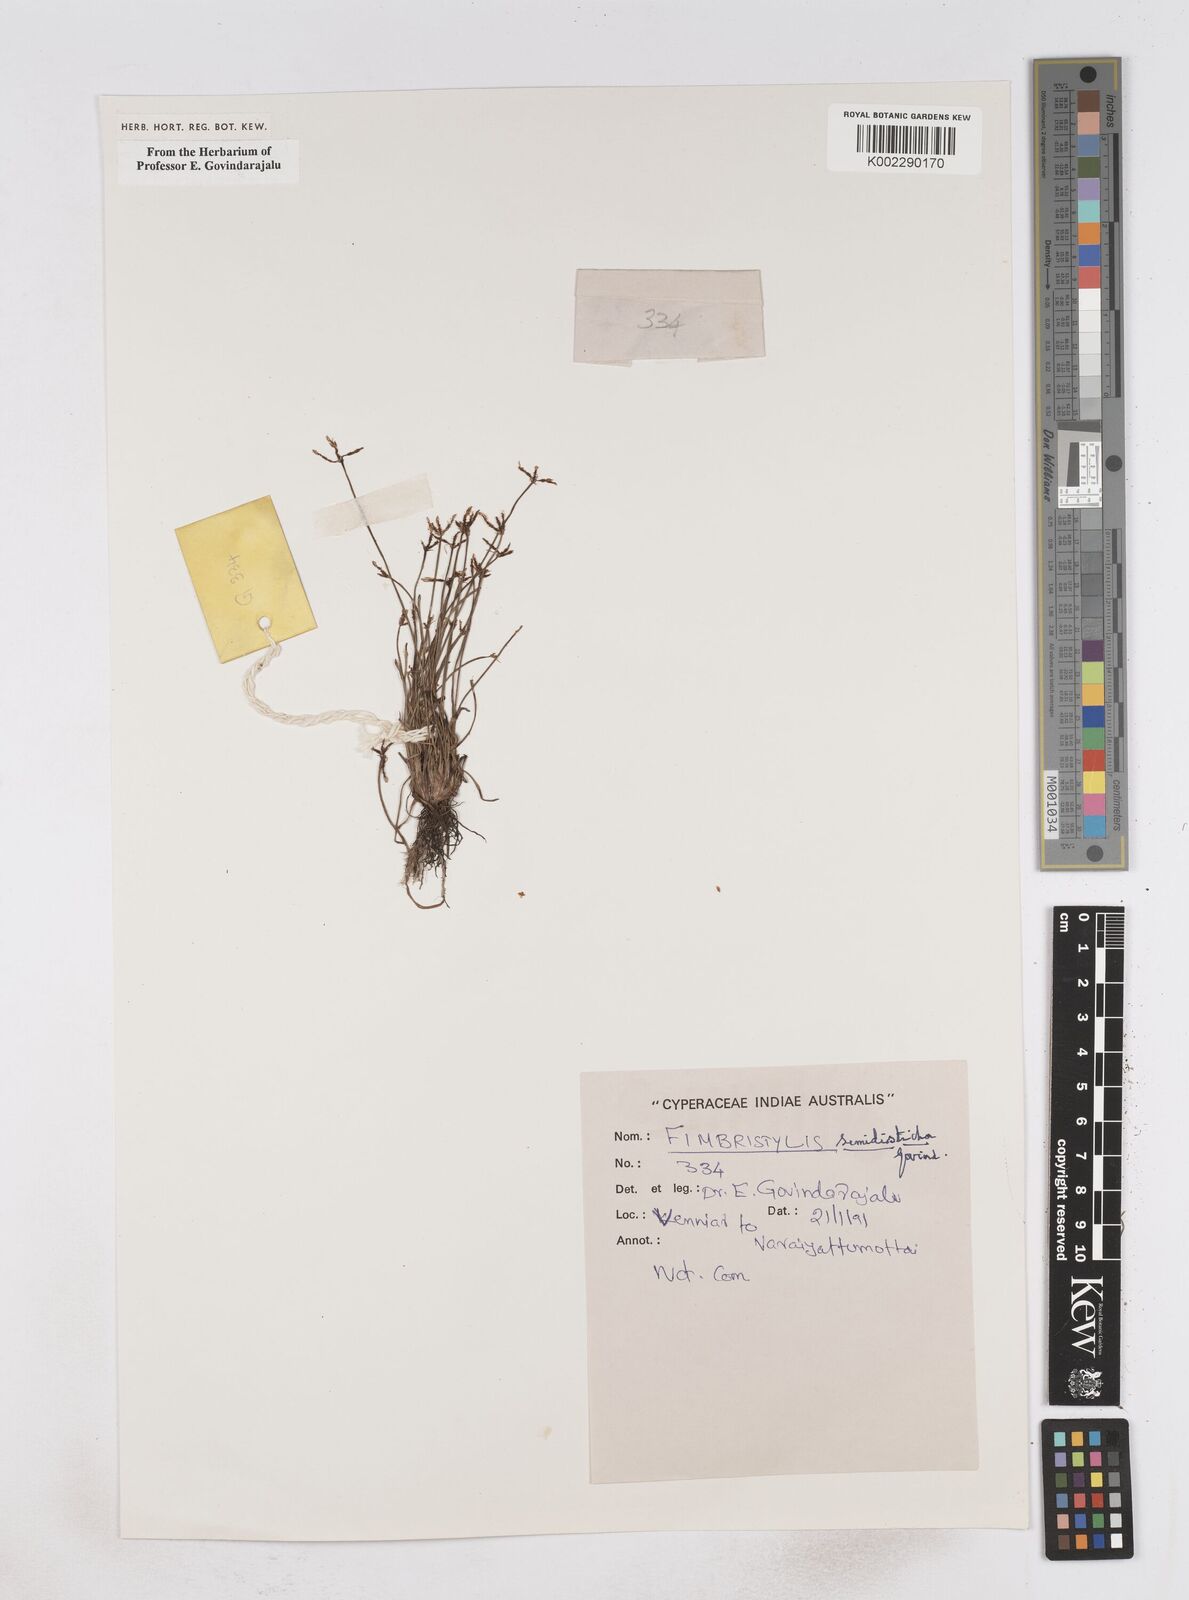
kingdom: Plantae
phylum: Tracheophyta
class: Liliopsida
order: Poales
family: Cyperaceae
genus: Fimbristylis
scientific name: Fimbristylis semidisticha
